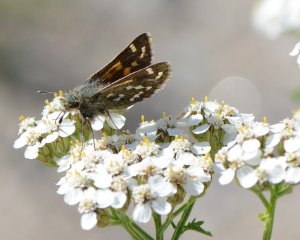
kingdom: Animalia
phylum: Arthropoda
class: Insecta
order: Lepidoptera
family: Hesperiidae
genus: Hesperia
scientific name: Hesperia comma
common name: Common Branded Skipper
